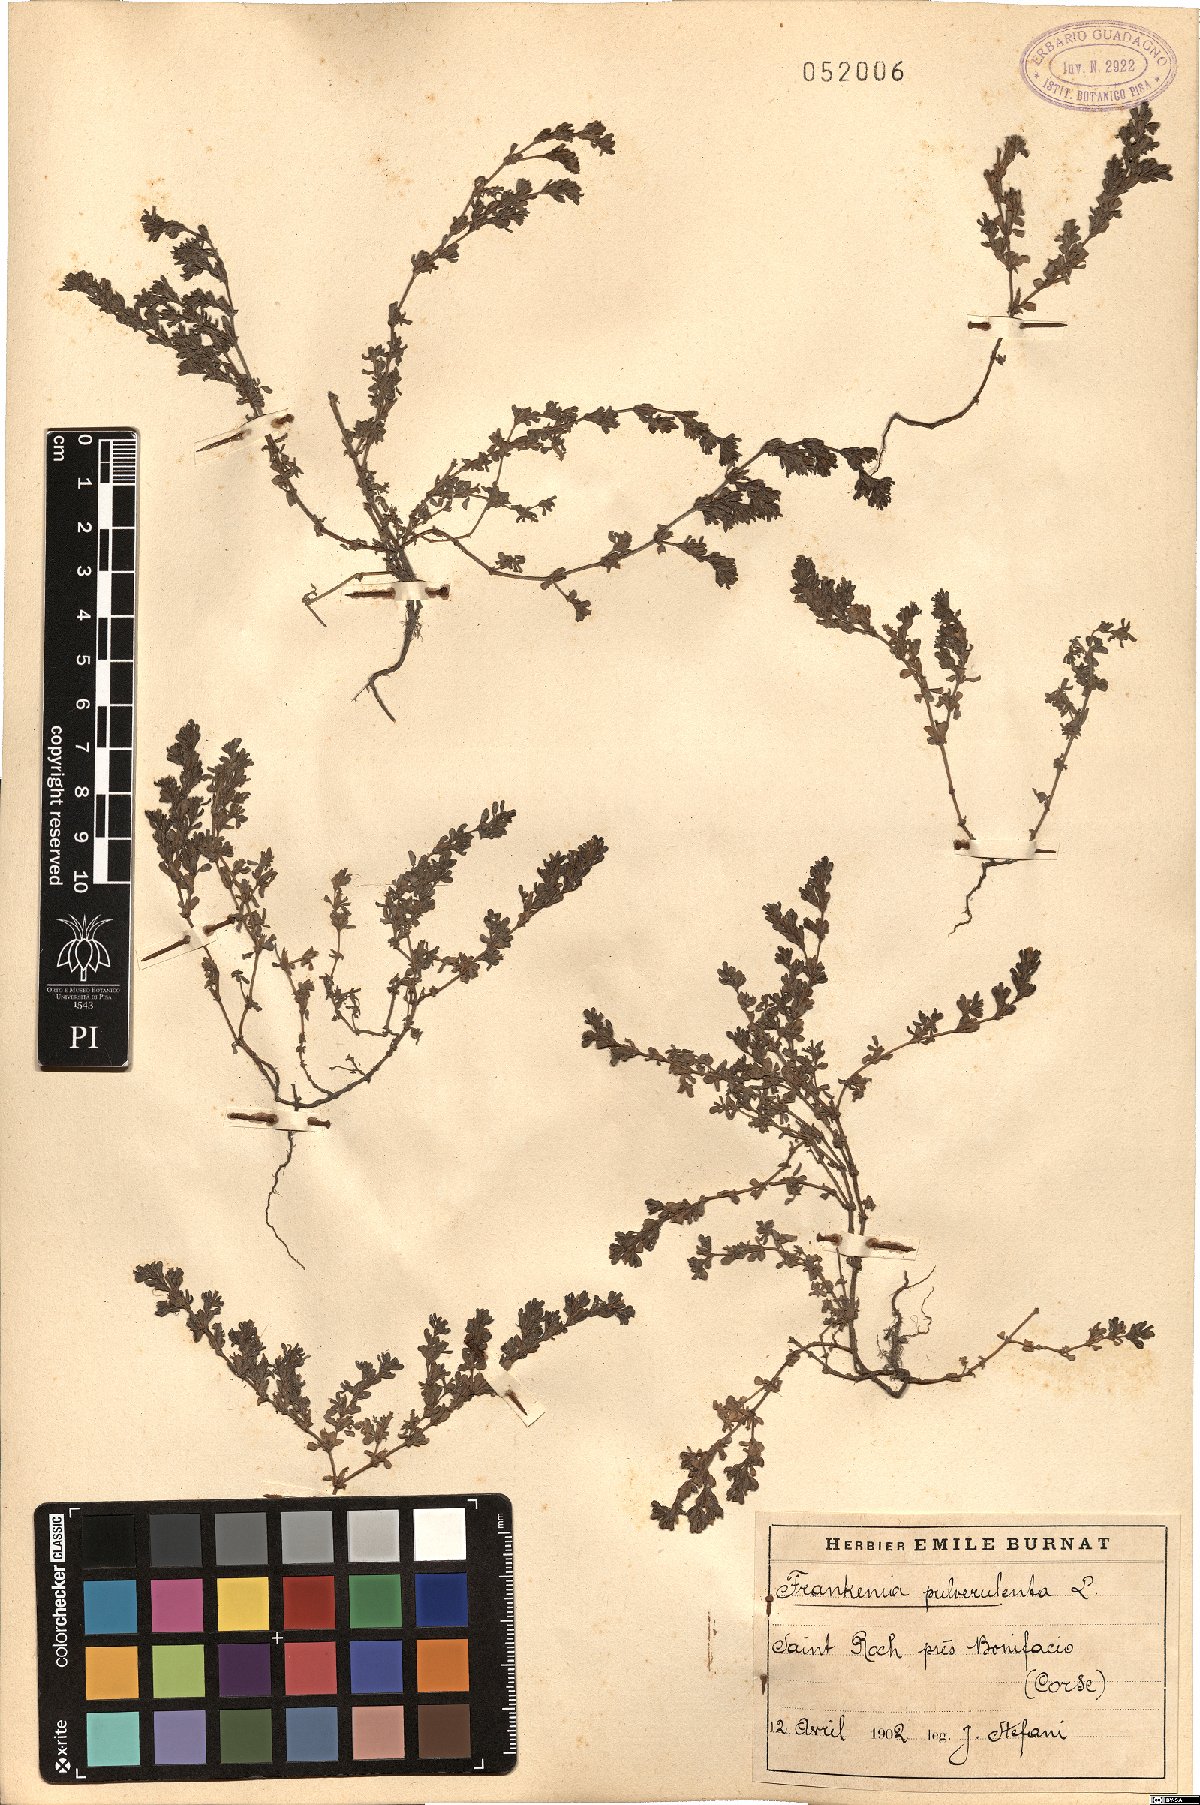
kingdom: Plantae
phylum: Tracheophyta
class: Magnoliopsida
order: Caryophyllales
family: Frankeniaceae
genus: Frankenia
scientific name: Frankenia pulverulenta
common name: European seaheath
